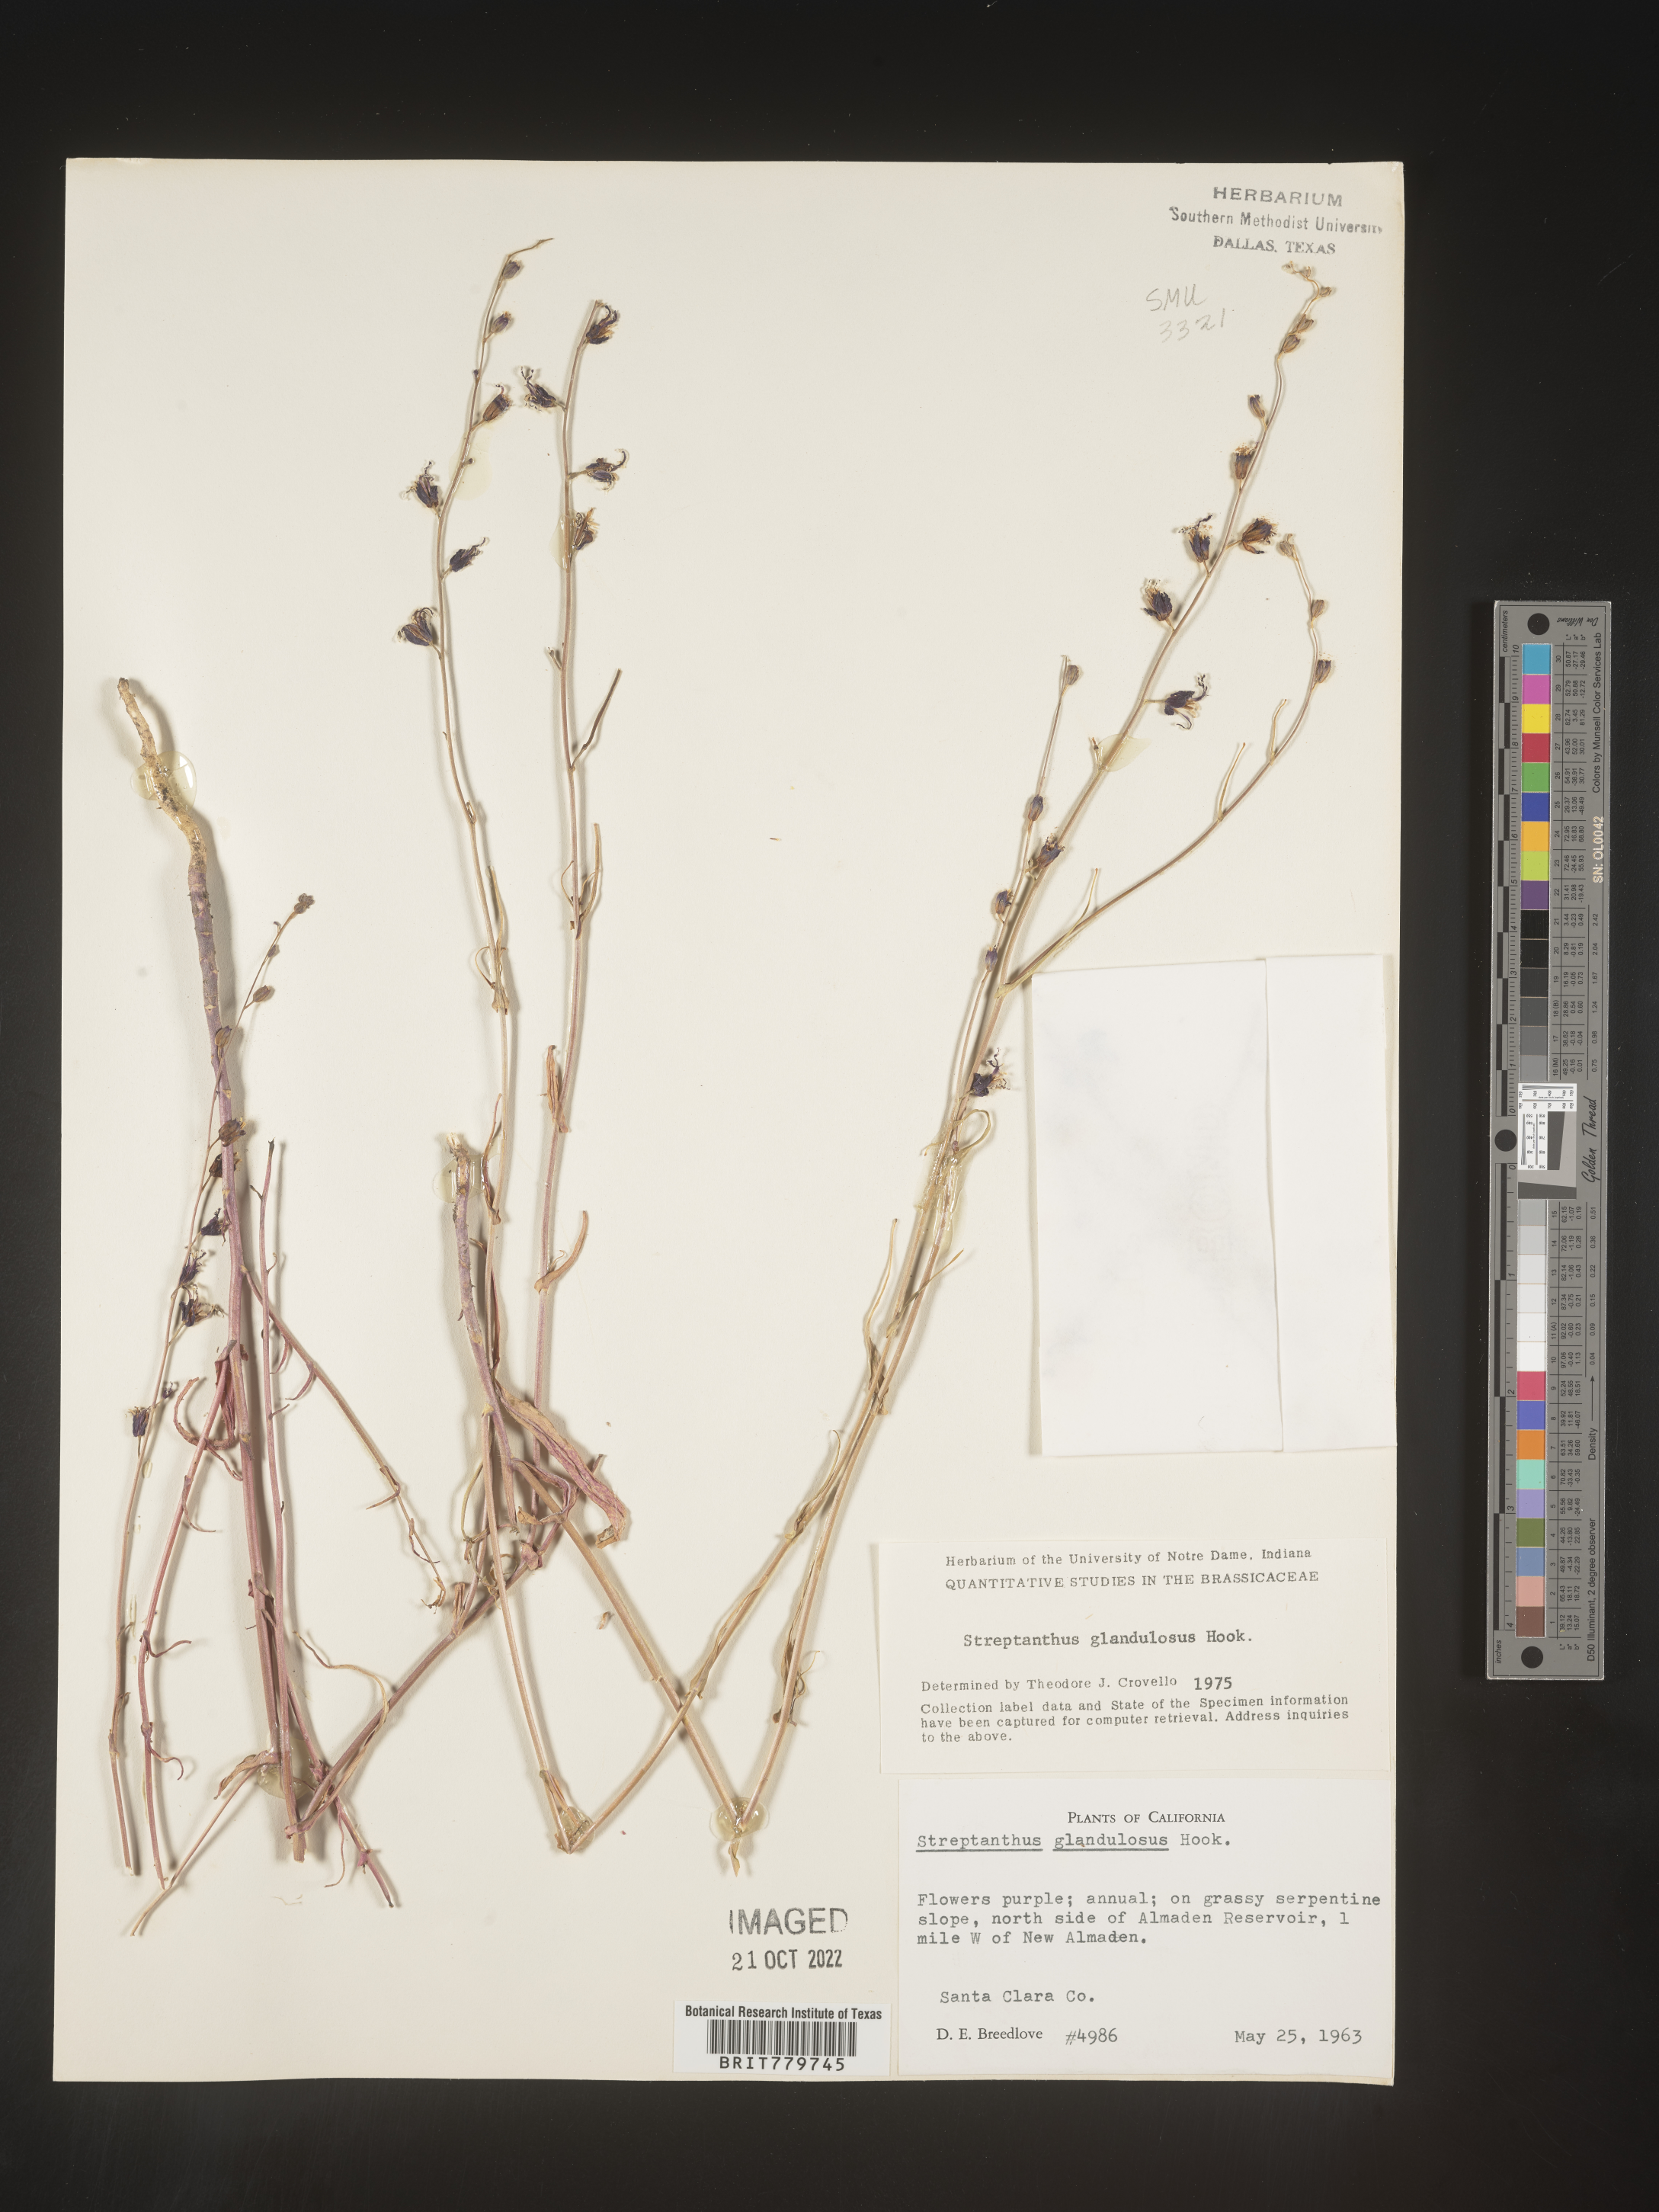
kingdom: Plantae
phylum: Tracheophyta
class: Magnoliopsida
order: Brassicales
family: Brassicaceae
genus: Streptanthus
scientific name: Streptanthus
